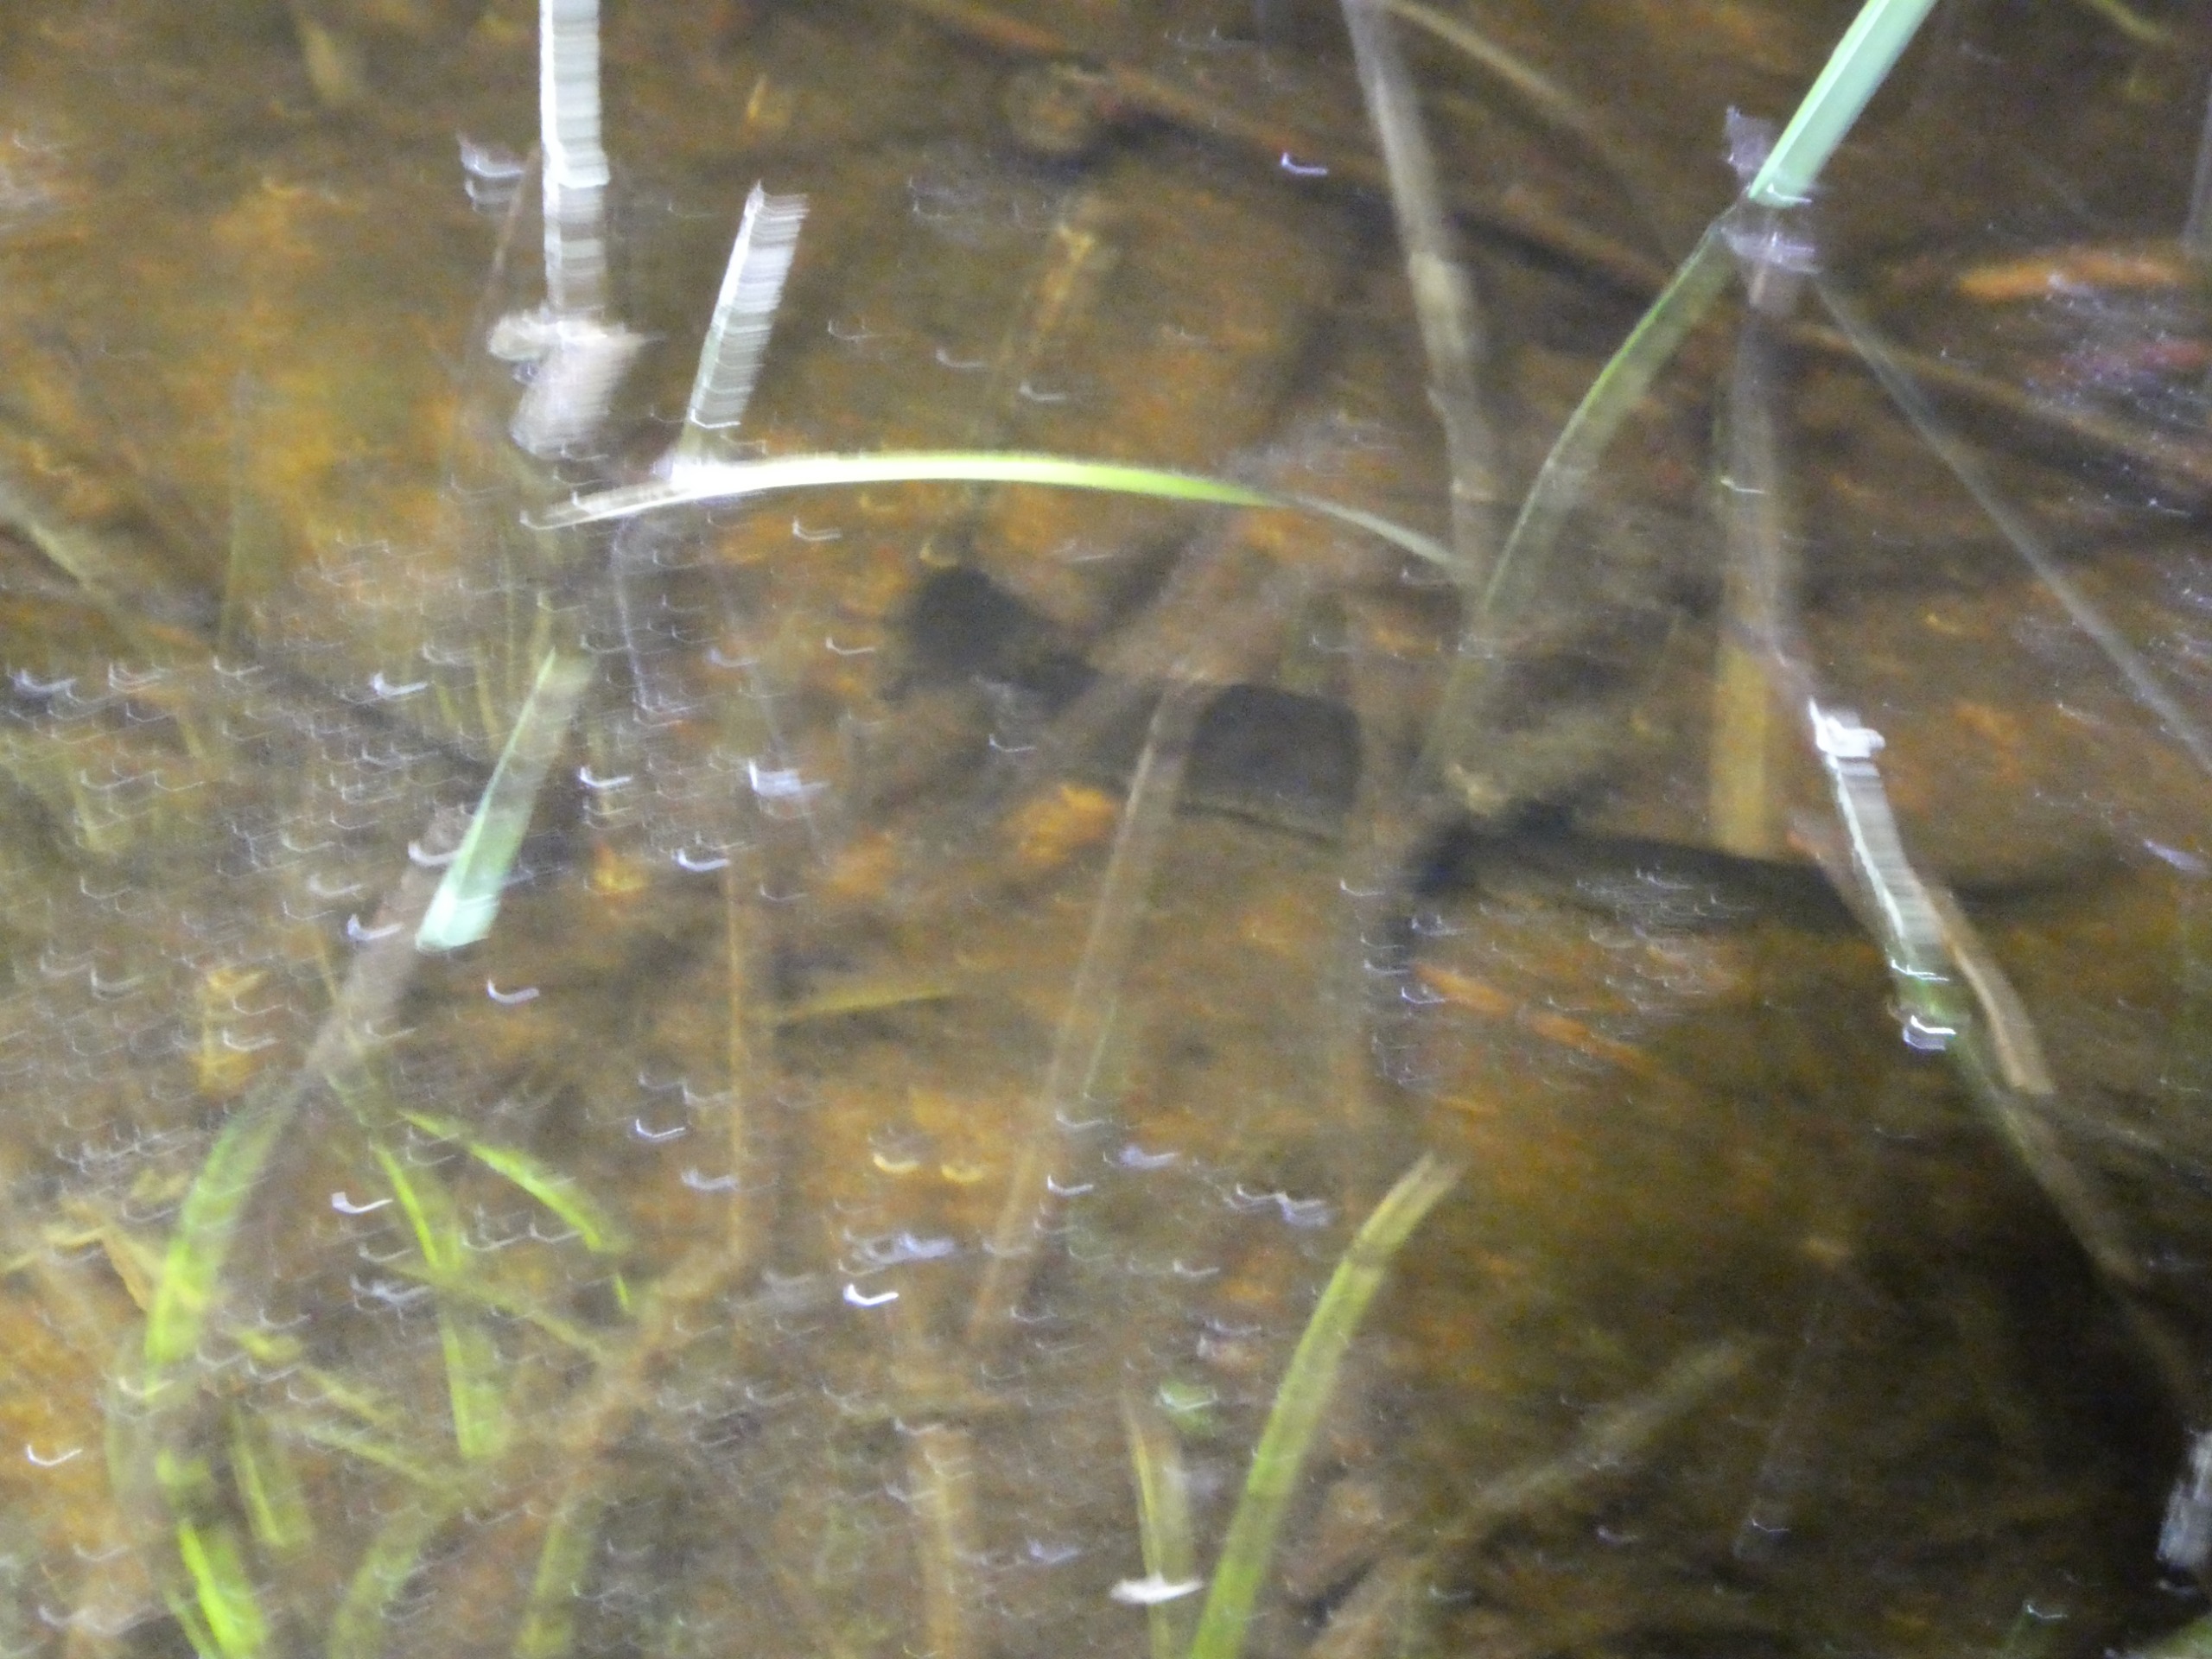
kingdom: Animalia
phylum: Chordata
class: Amphibia
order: Caudata
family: Salamandridae
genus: Triturus
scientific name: Triturus cristatus
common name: Stor vandsalamander
